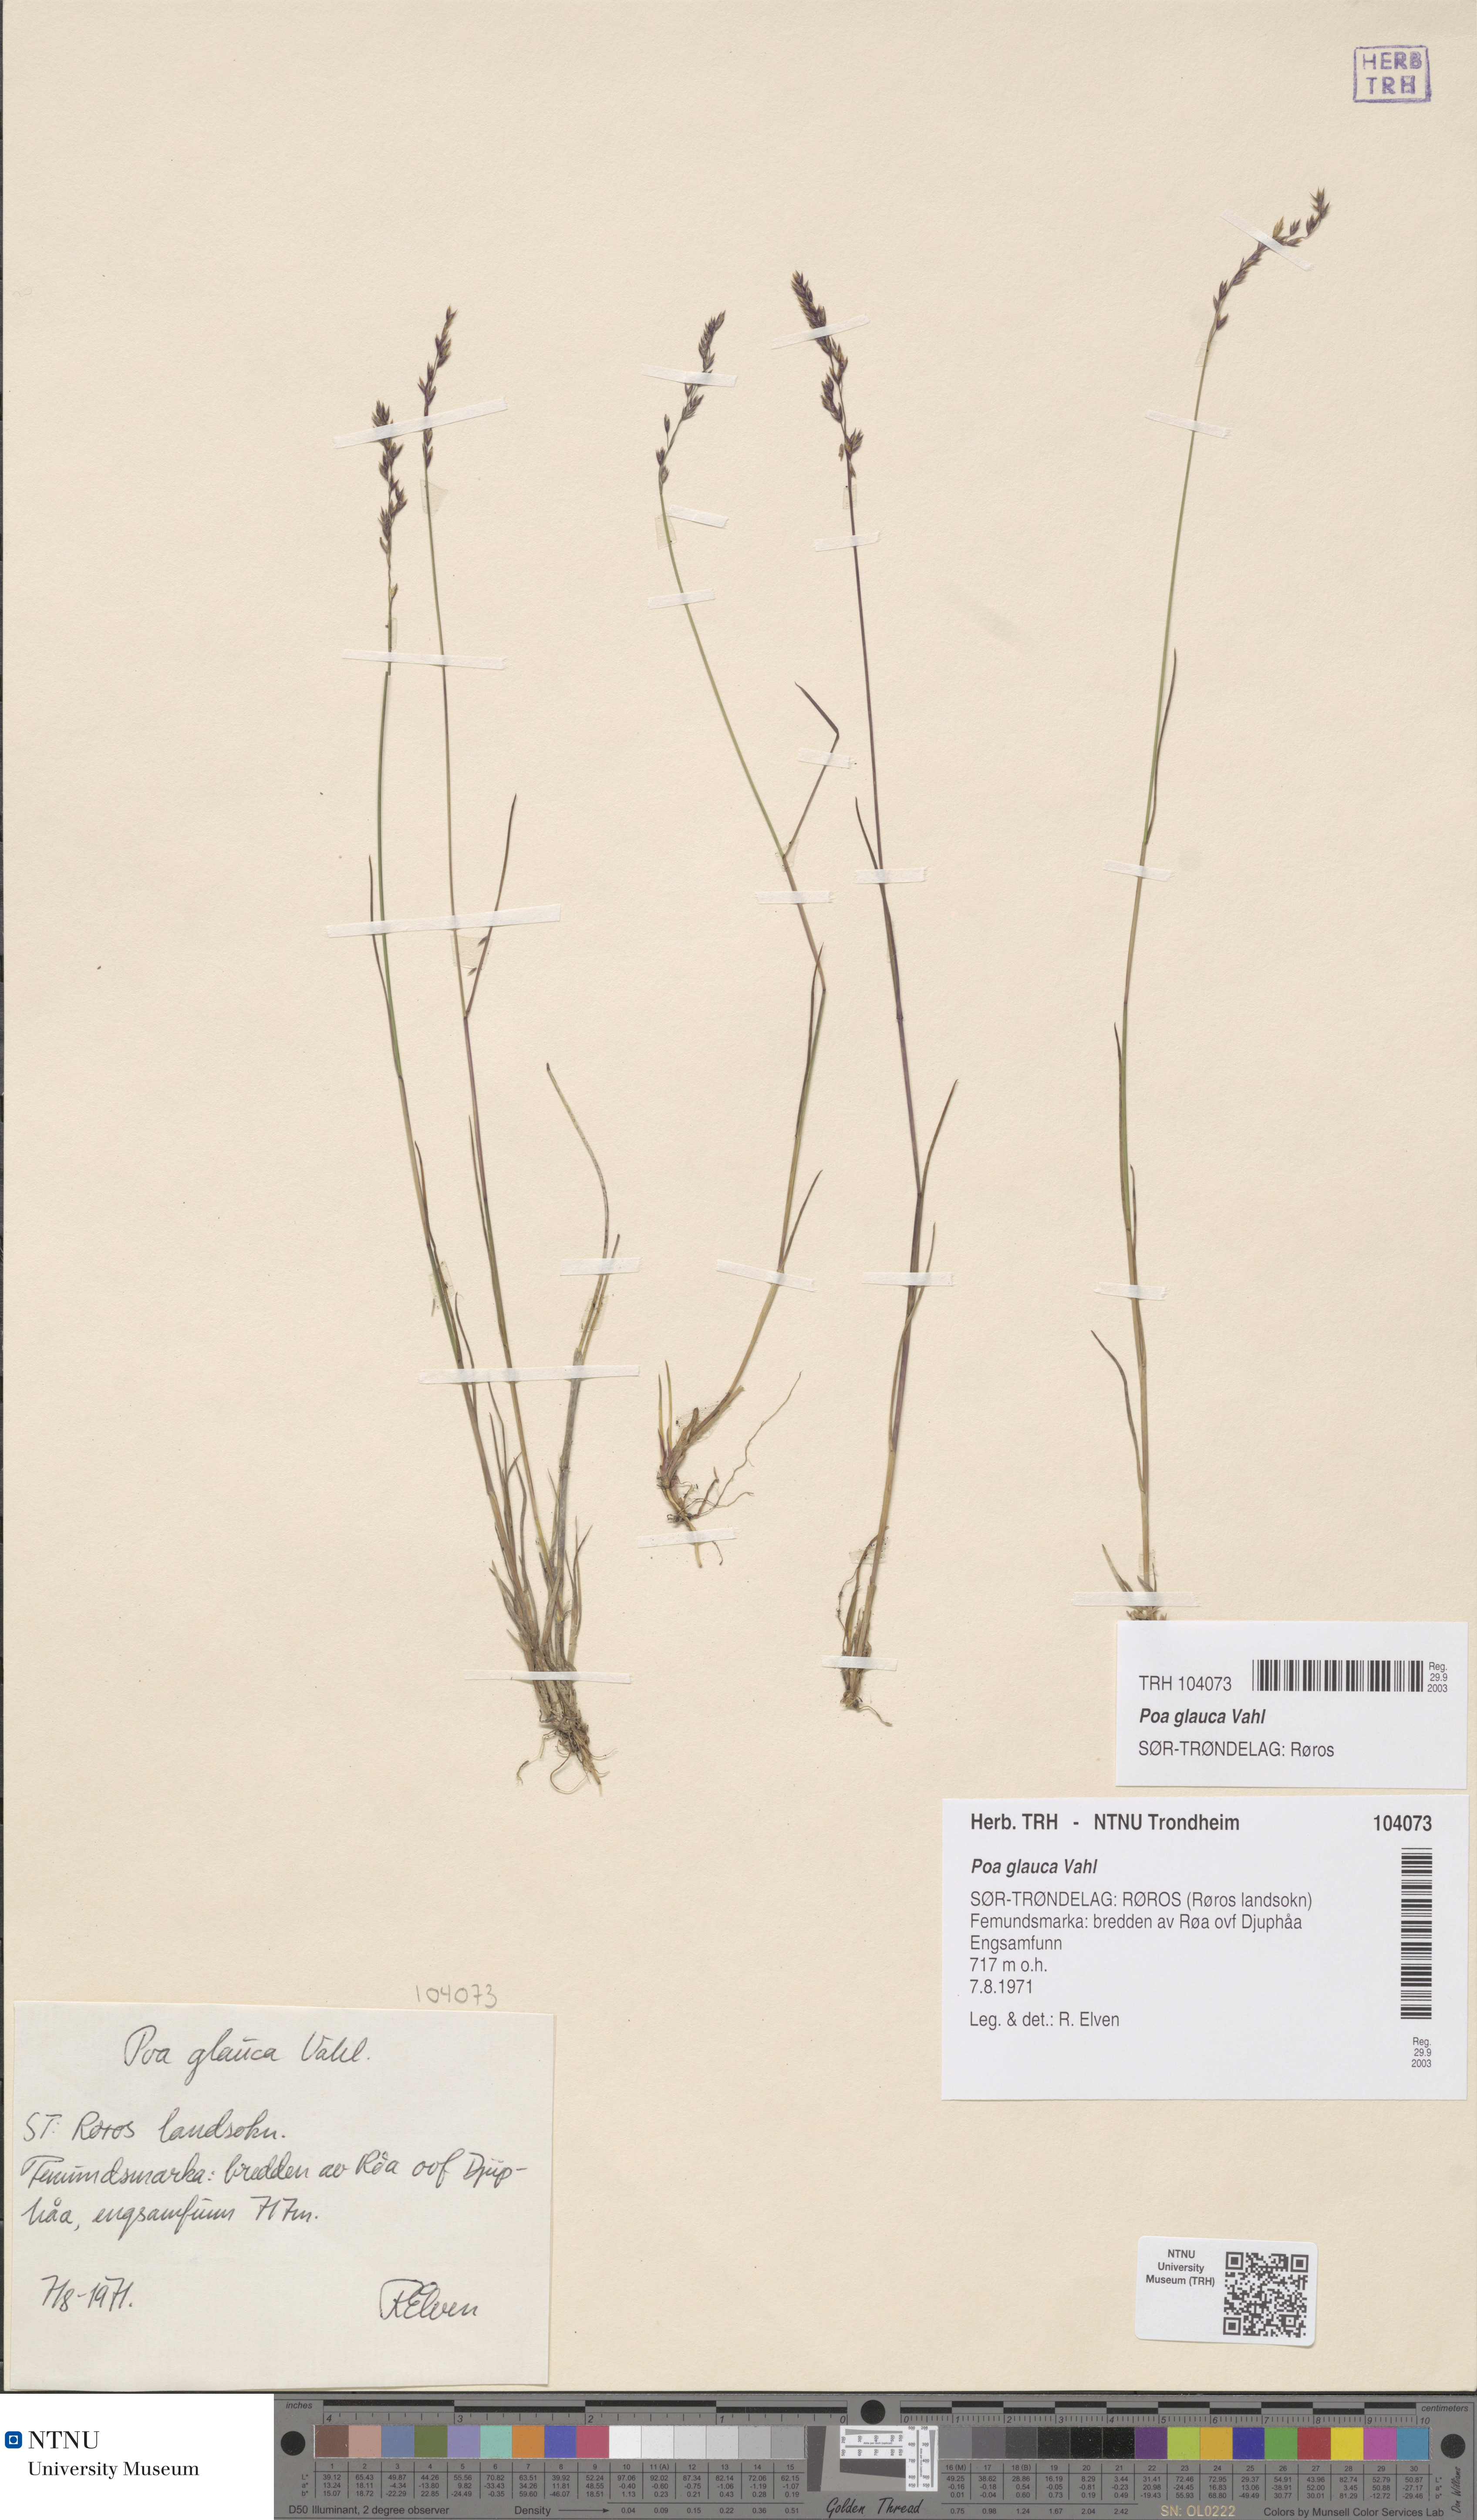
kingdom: Plantae
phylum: Tracheophyta
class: Liliopsida
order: Poales
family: Poaceae
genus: Poa
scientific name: Poa glauca
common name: Glaucous bluegrass
